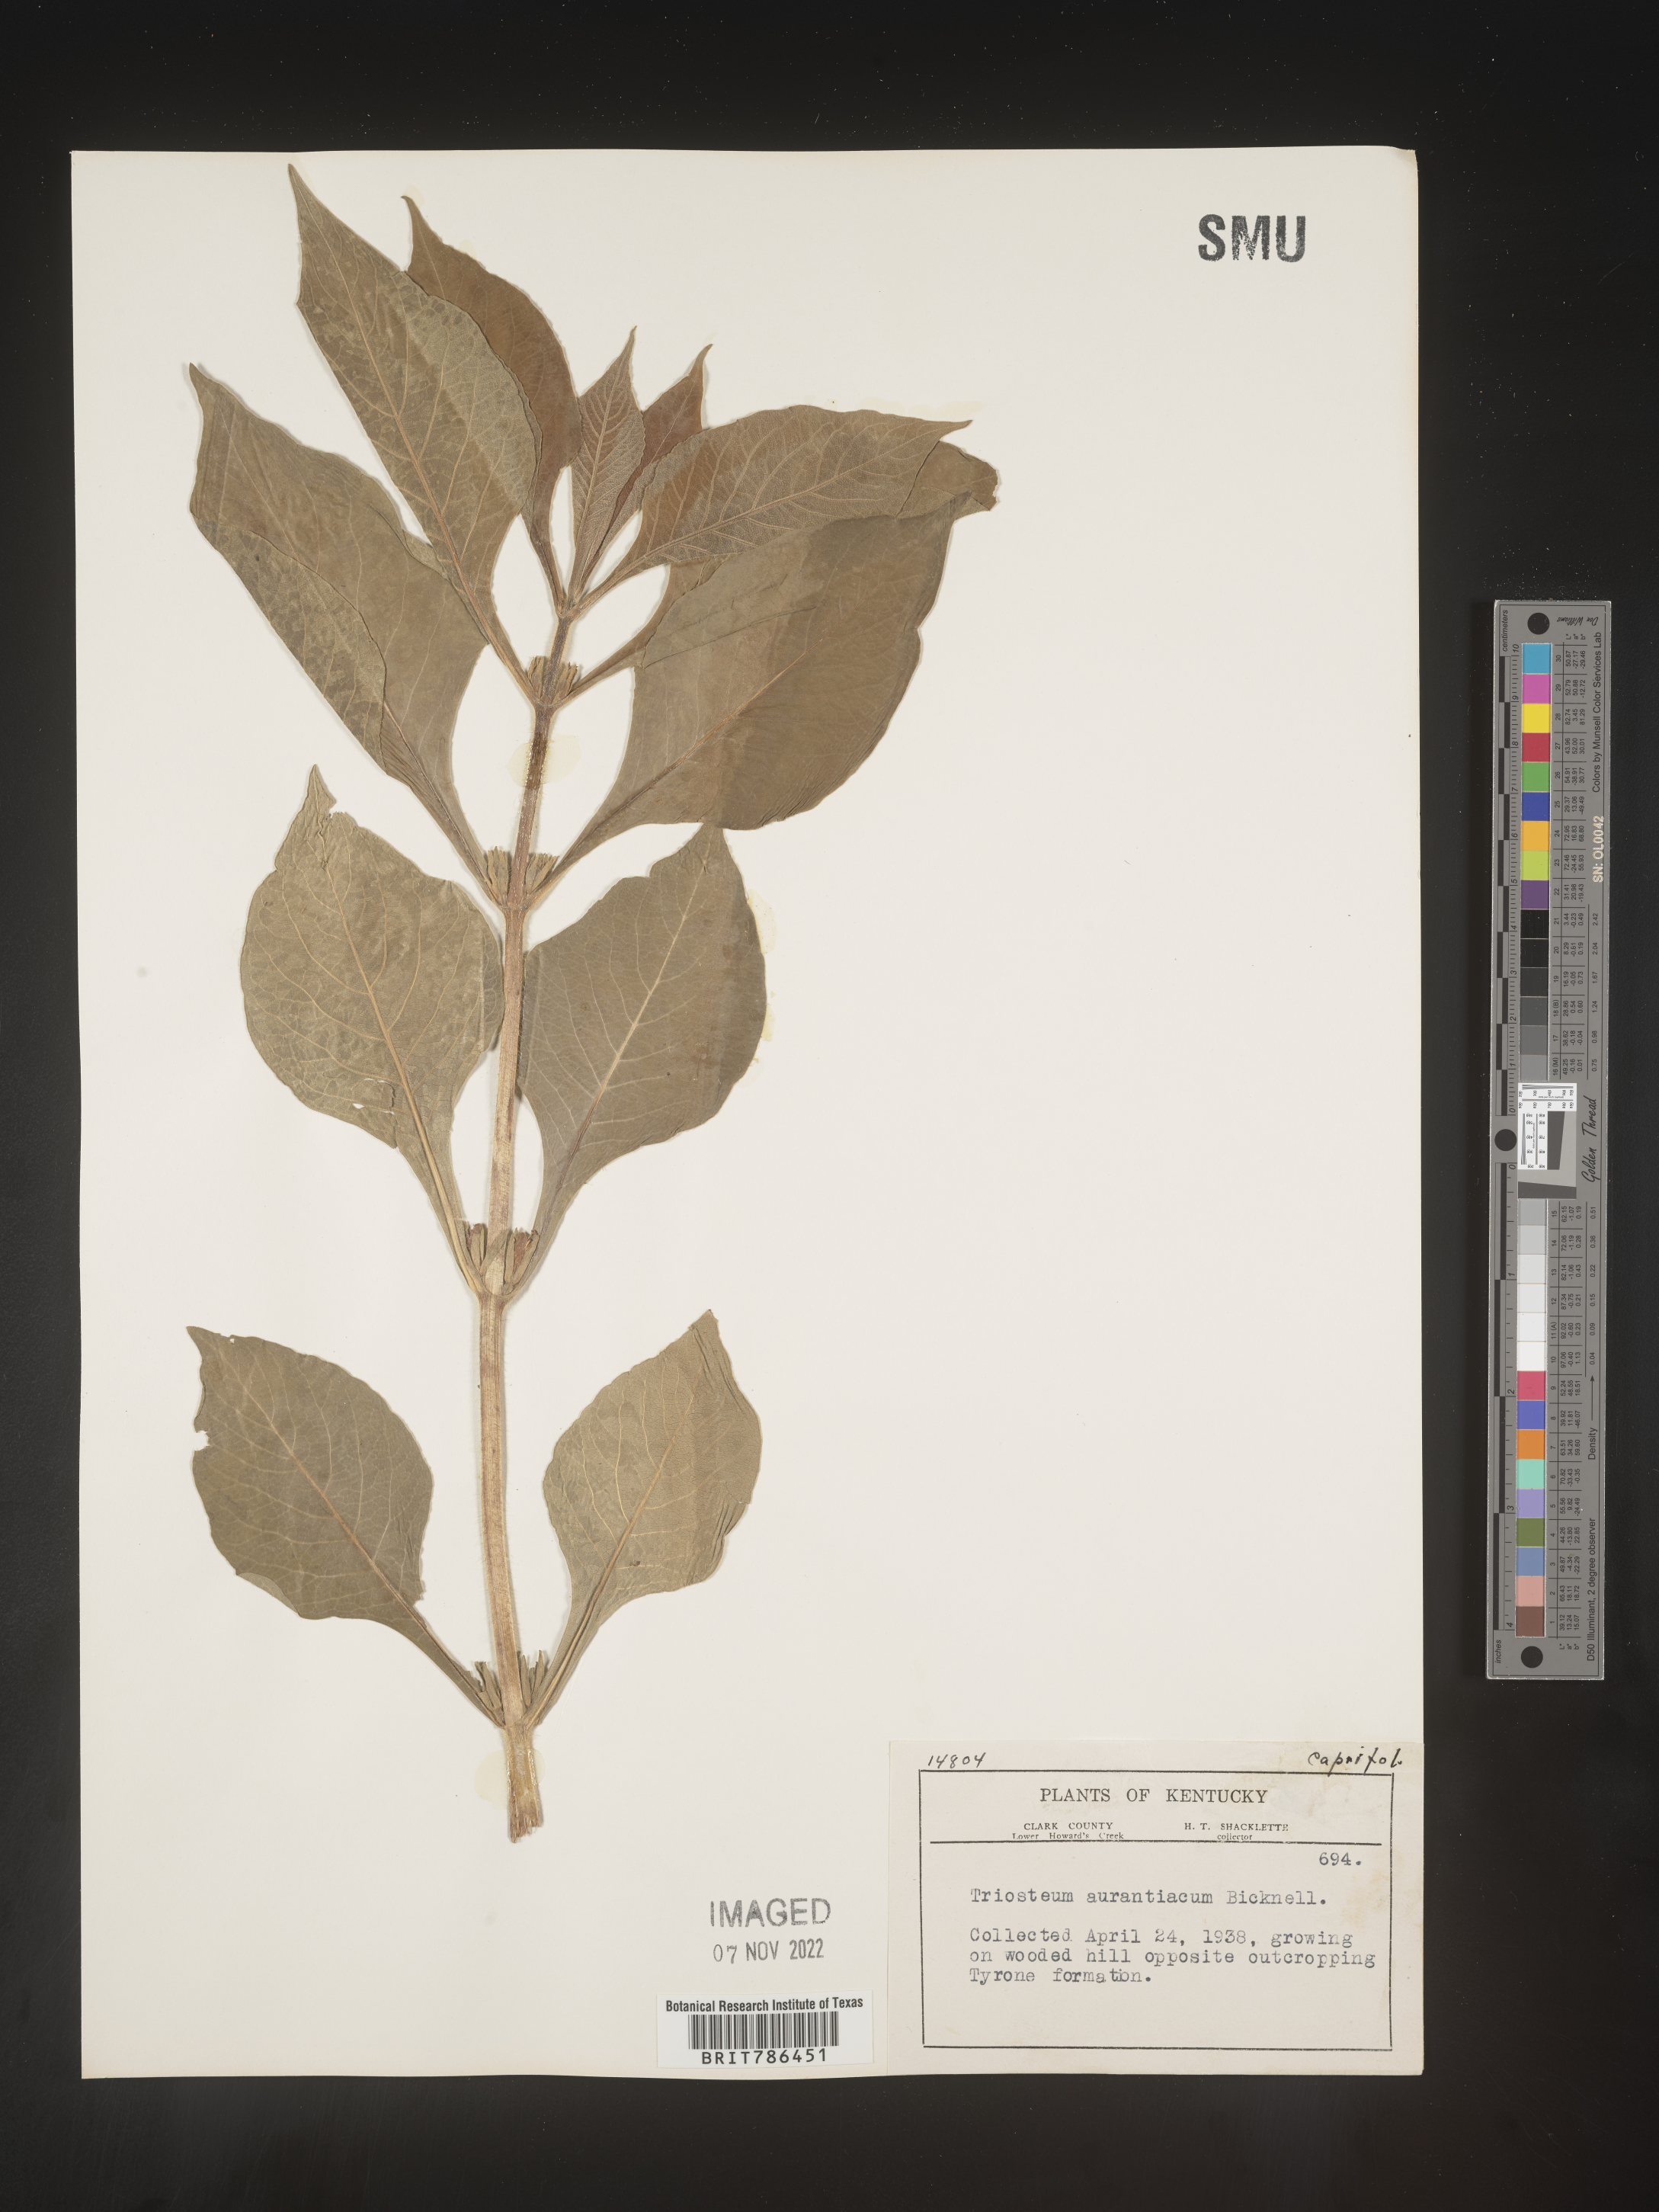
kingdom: Plantae
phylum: Tracheophyta
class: Magnoliopsida
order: Dipsacales
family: Caprifoliaceae
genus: Triosteum
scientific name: Triosteum aurantiacum
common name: Coffee tinker's-weed
